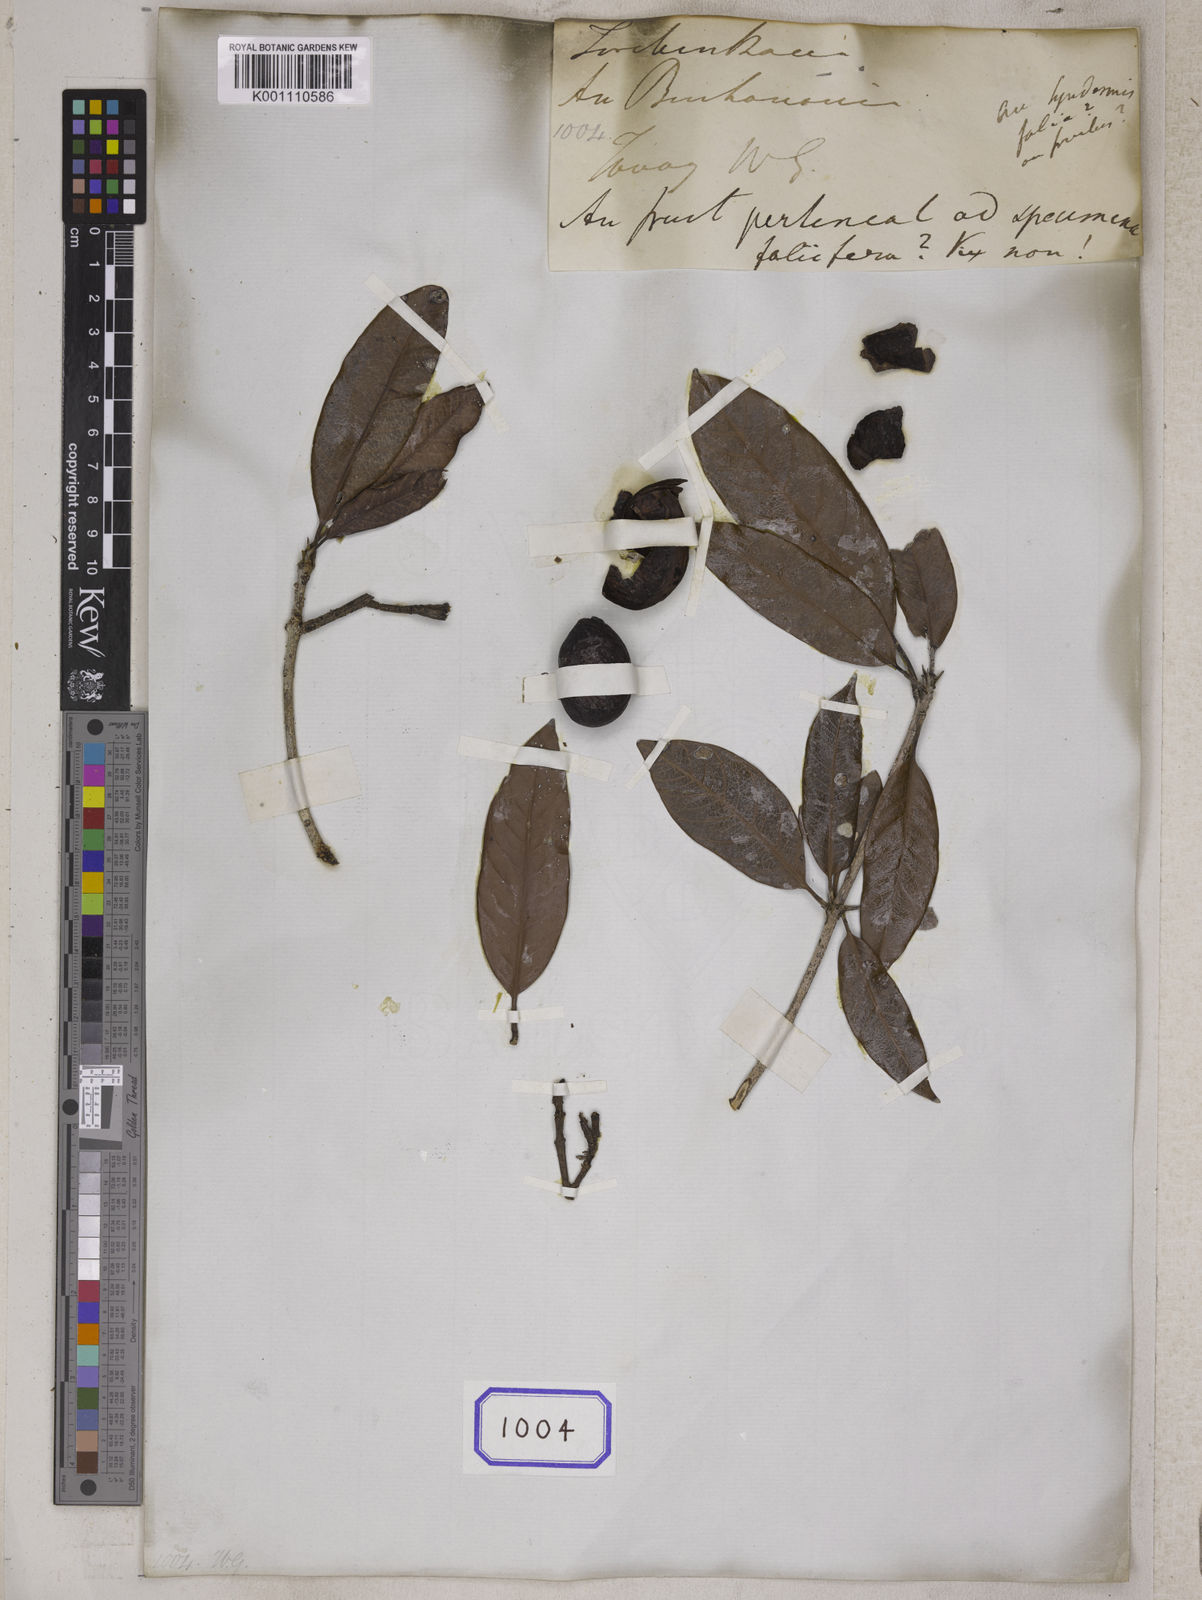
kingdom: Plantae
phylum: Tracheophyta
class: Magnoliopsida
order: Sapindales
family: Anacardiaceae
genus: Gluta
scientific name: Gluta tavoyana
